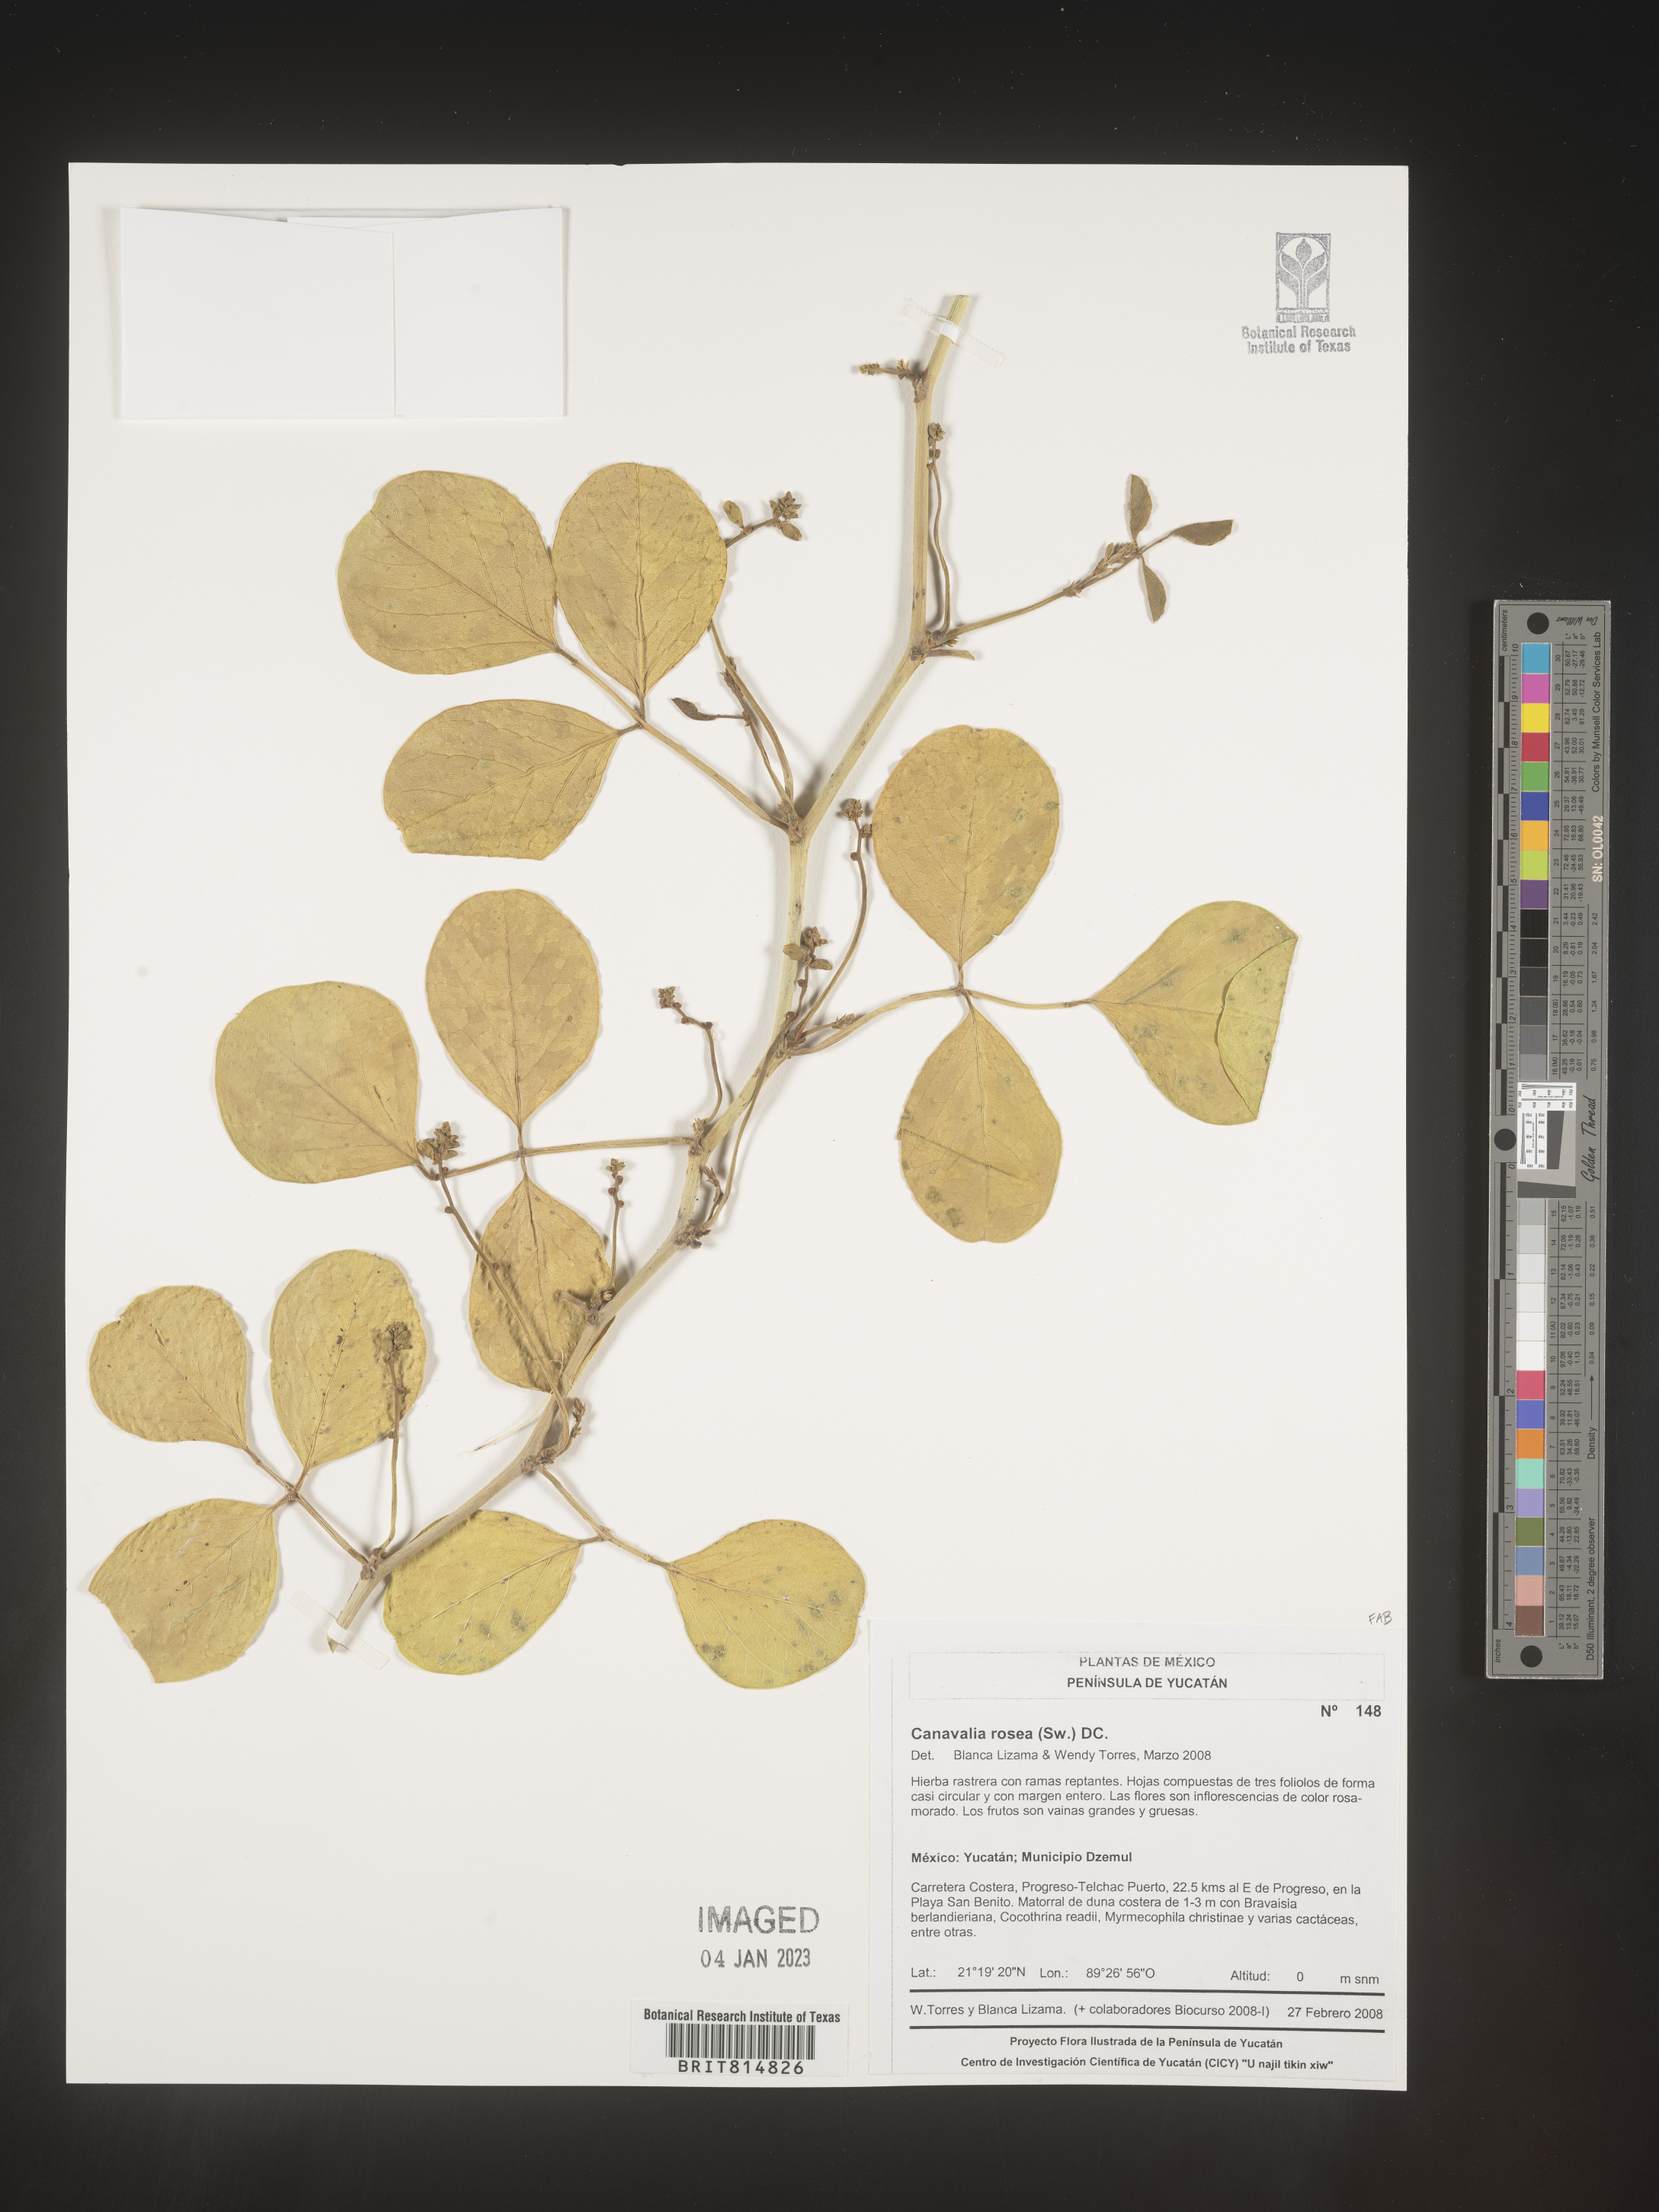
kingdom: Plantae
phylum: Tracheophyta
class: Magnoliopsida
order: Fabales
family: Fabaceae
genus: Canavalia
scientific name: Canavalia
